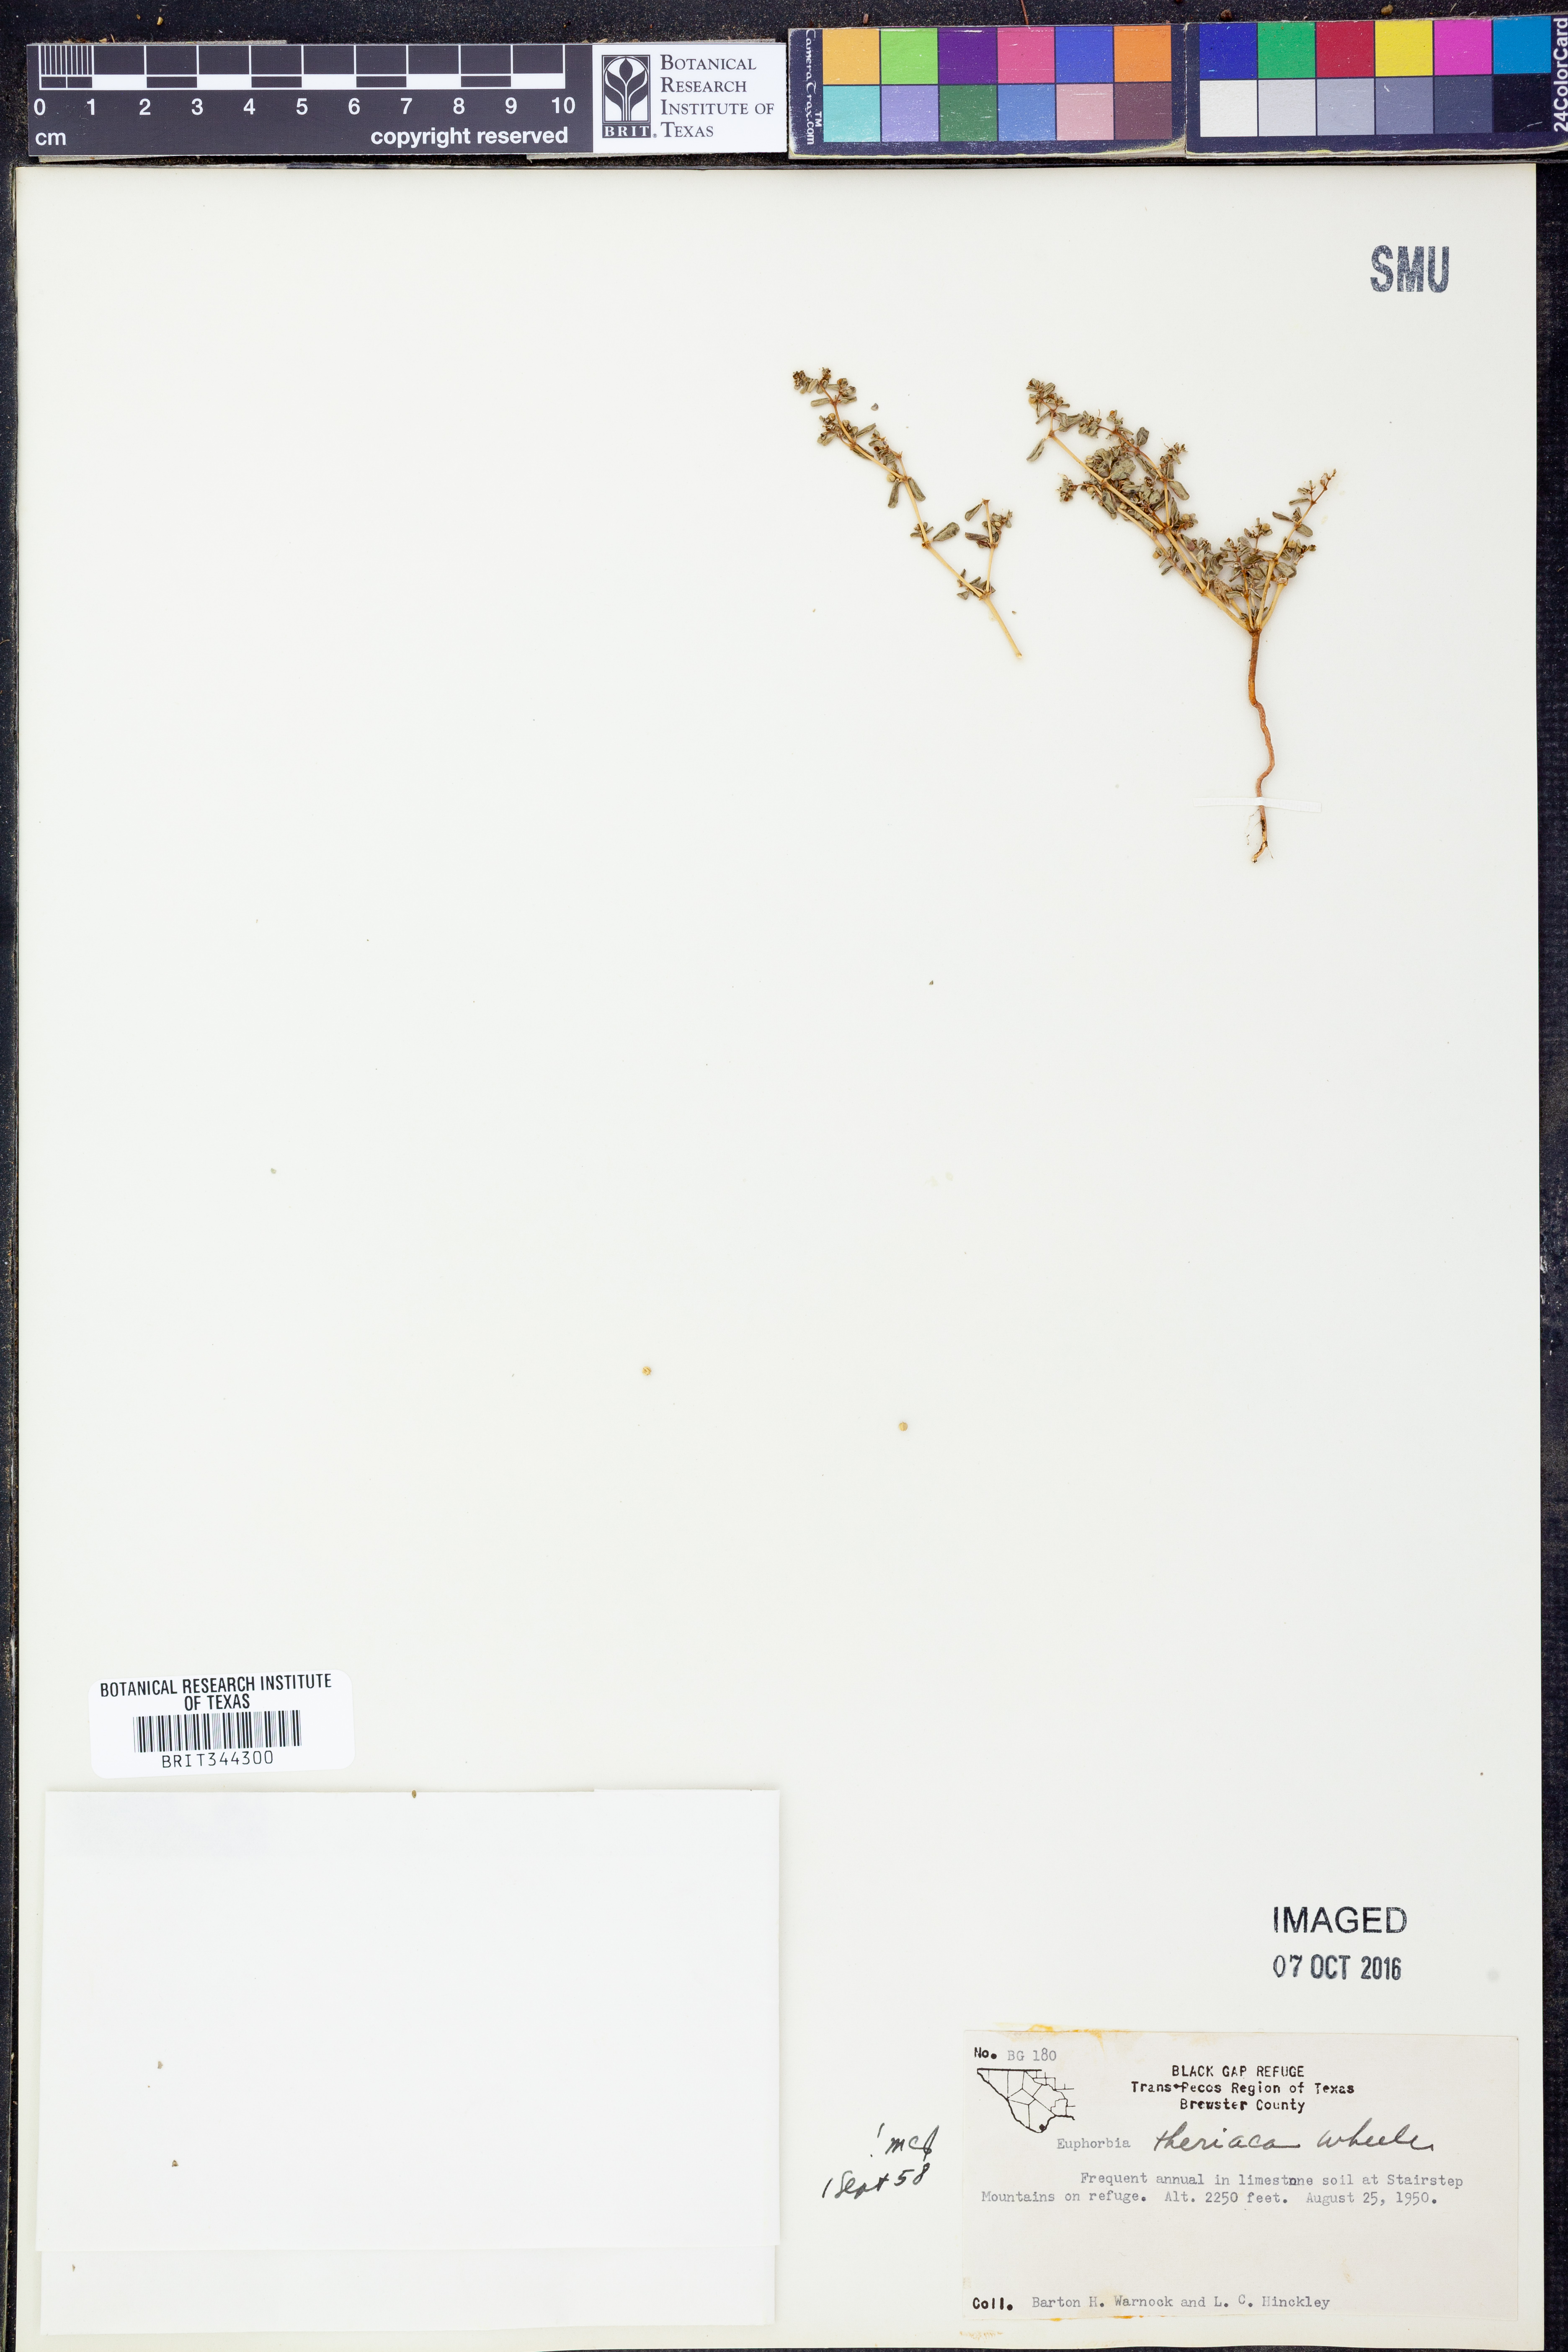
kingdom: Plantae
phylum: Tracheophyta
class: Magnoliopsida
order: Malpighiales
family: Euphorbiaceae
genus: Euphorbia
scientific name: Euphorbia theriaca
